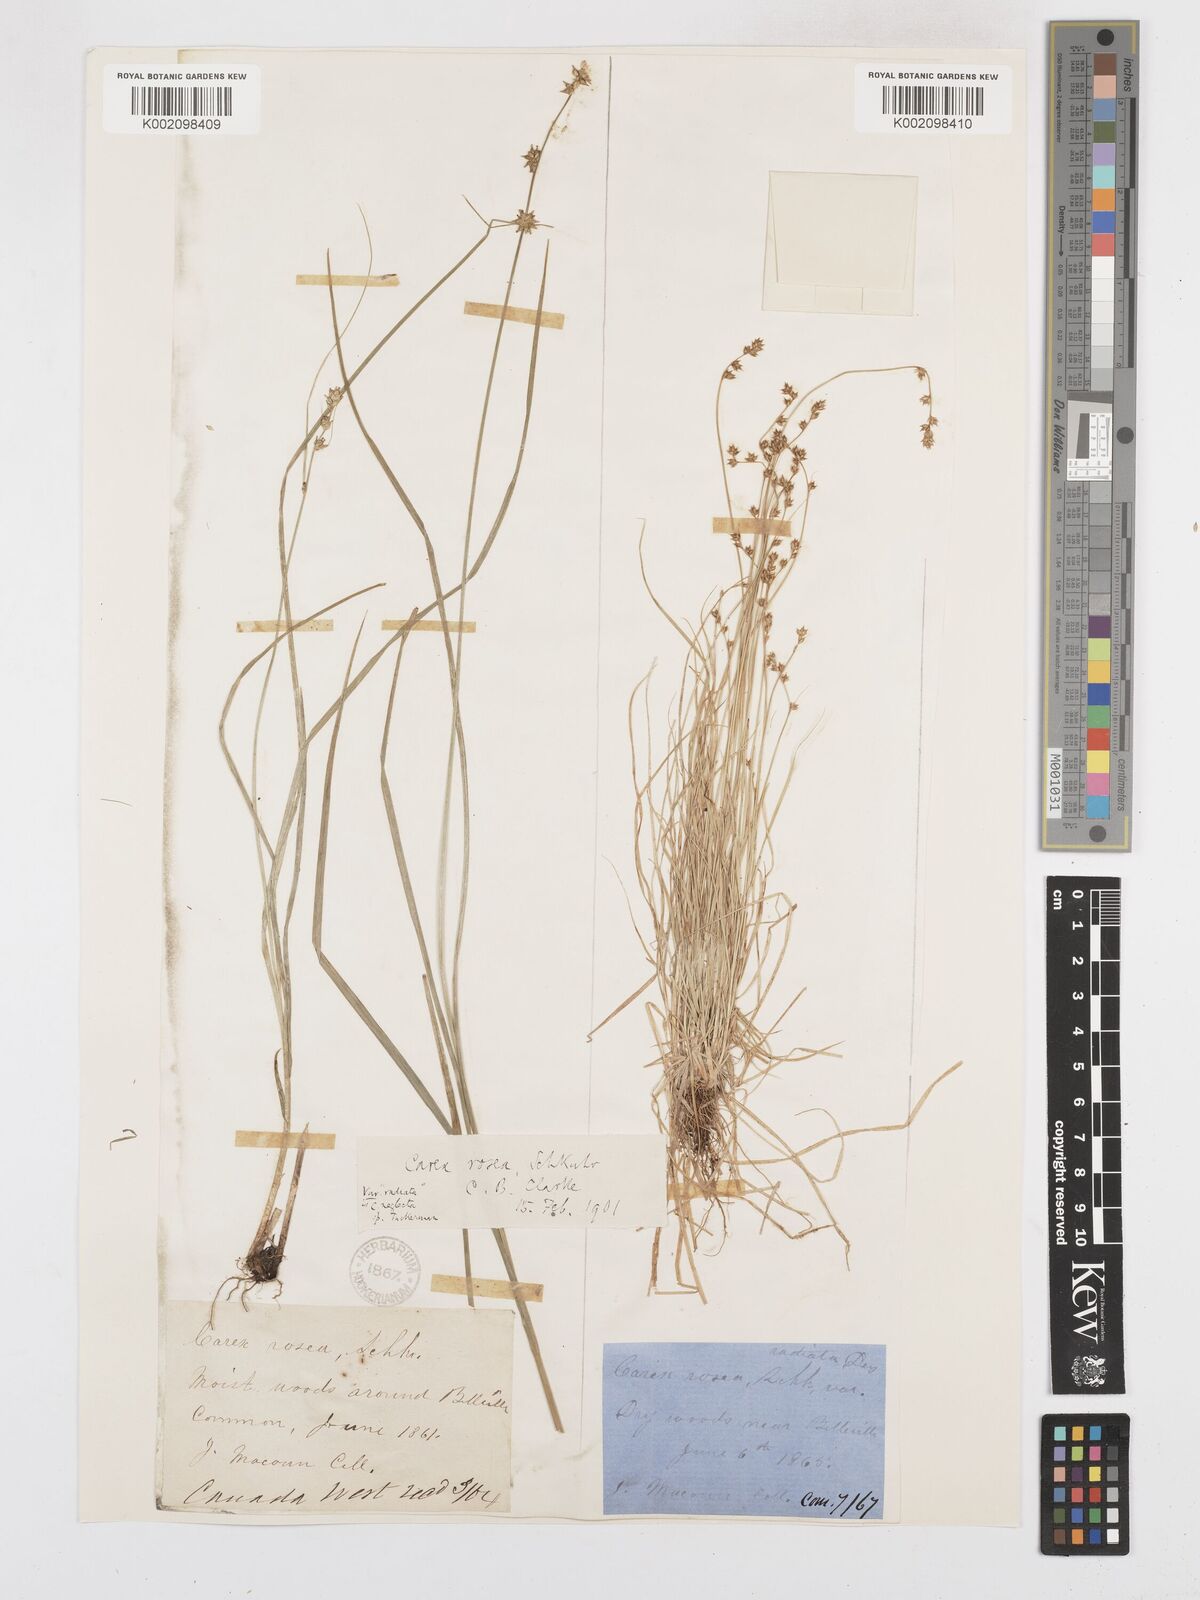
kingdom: Plantae
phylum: Tracheophyta
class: Liliopsida
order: Poales
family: Cyperaceae
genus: Carex
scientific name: Carex
